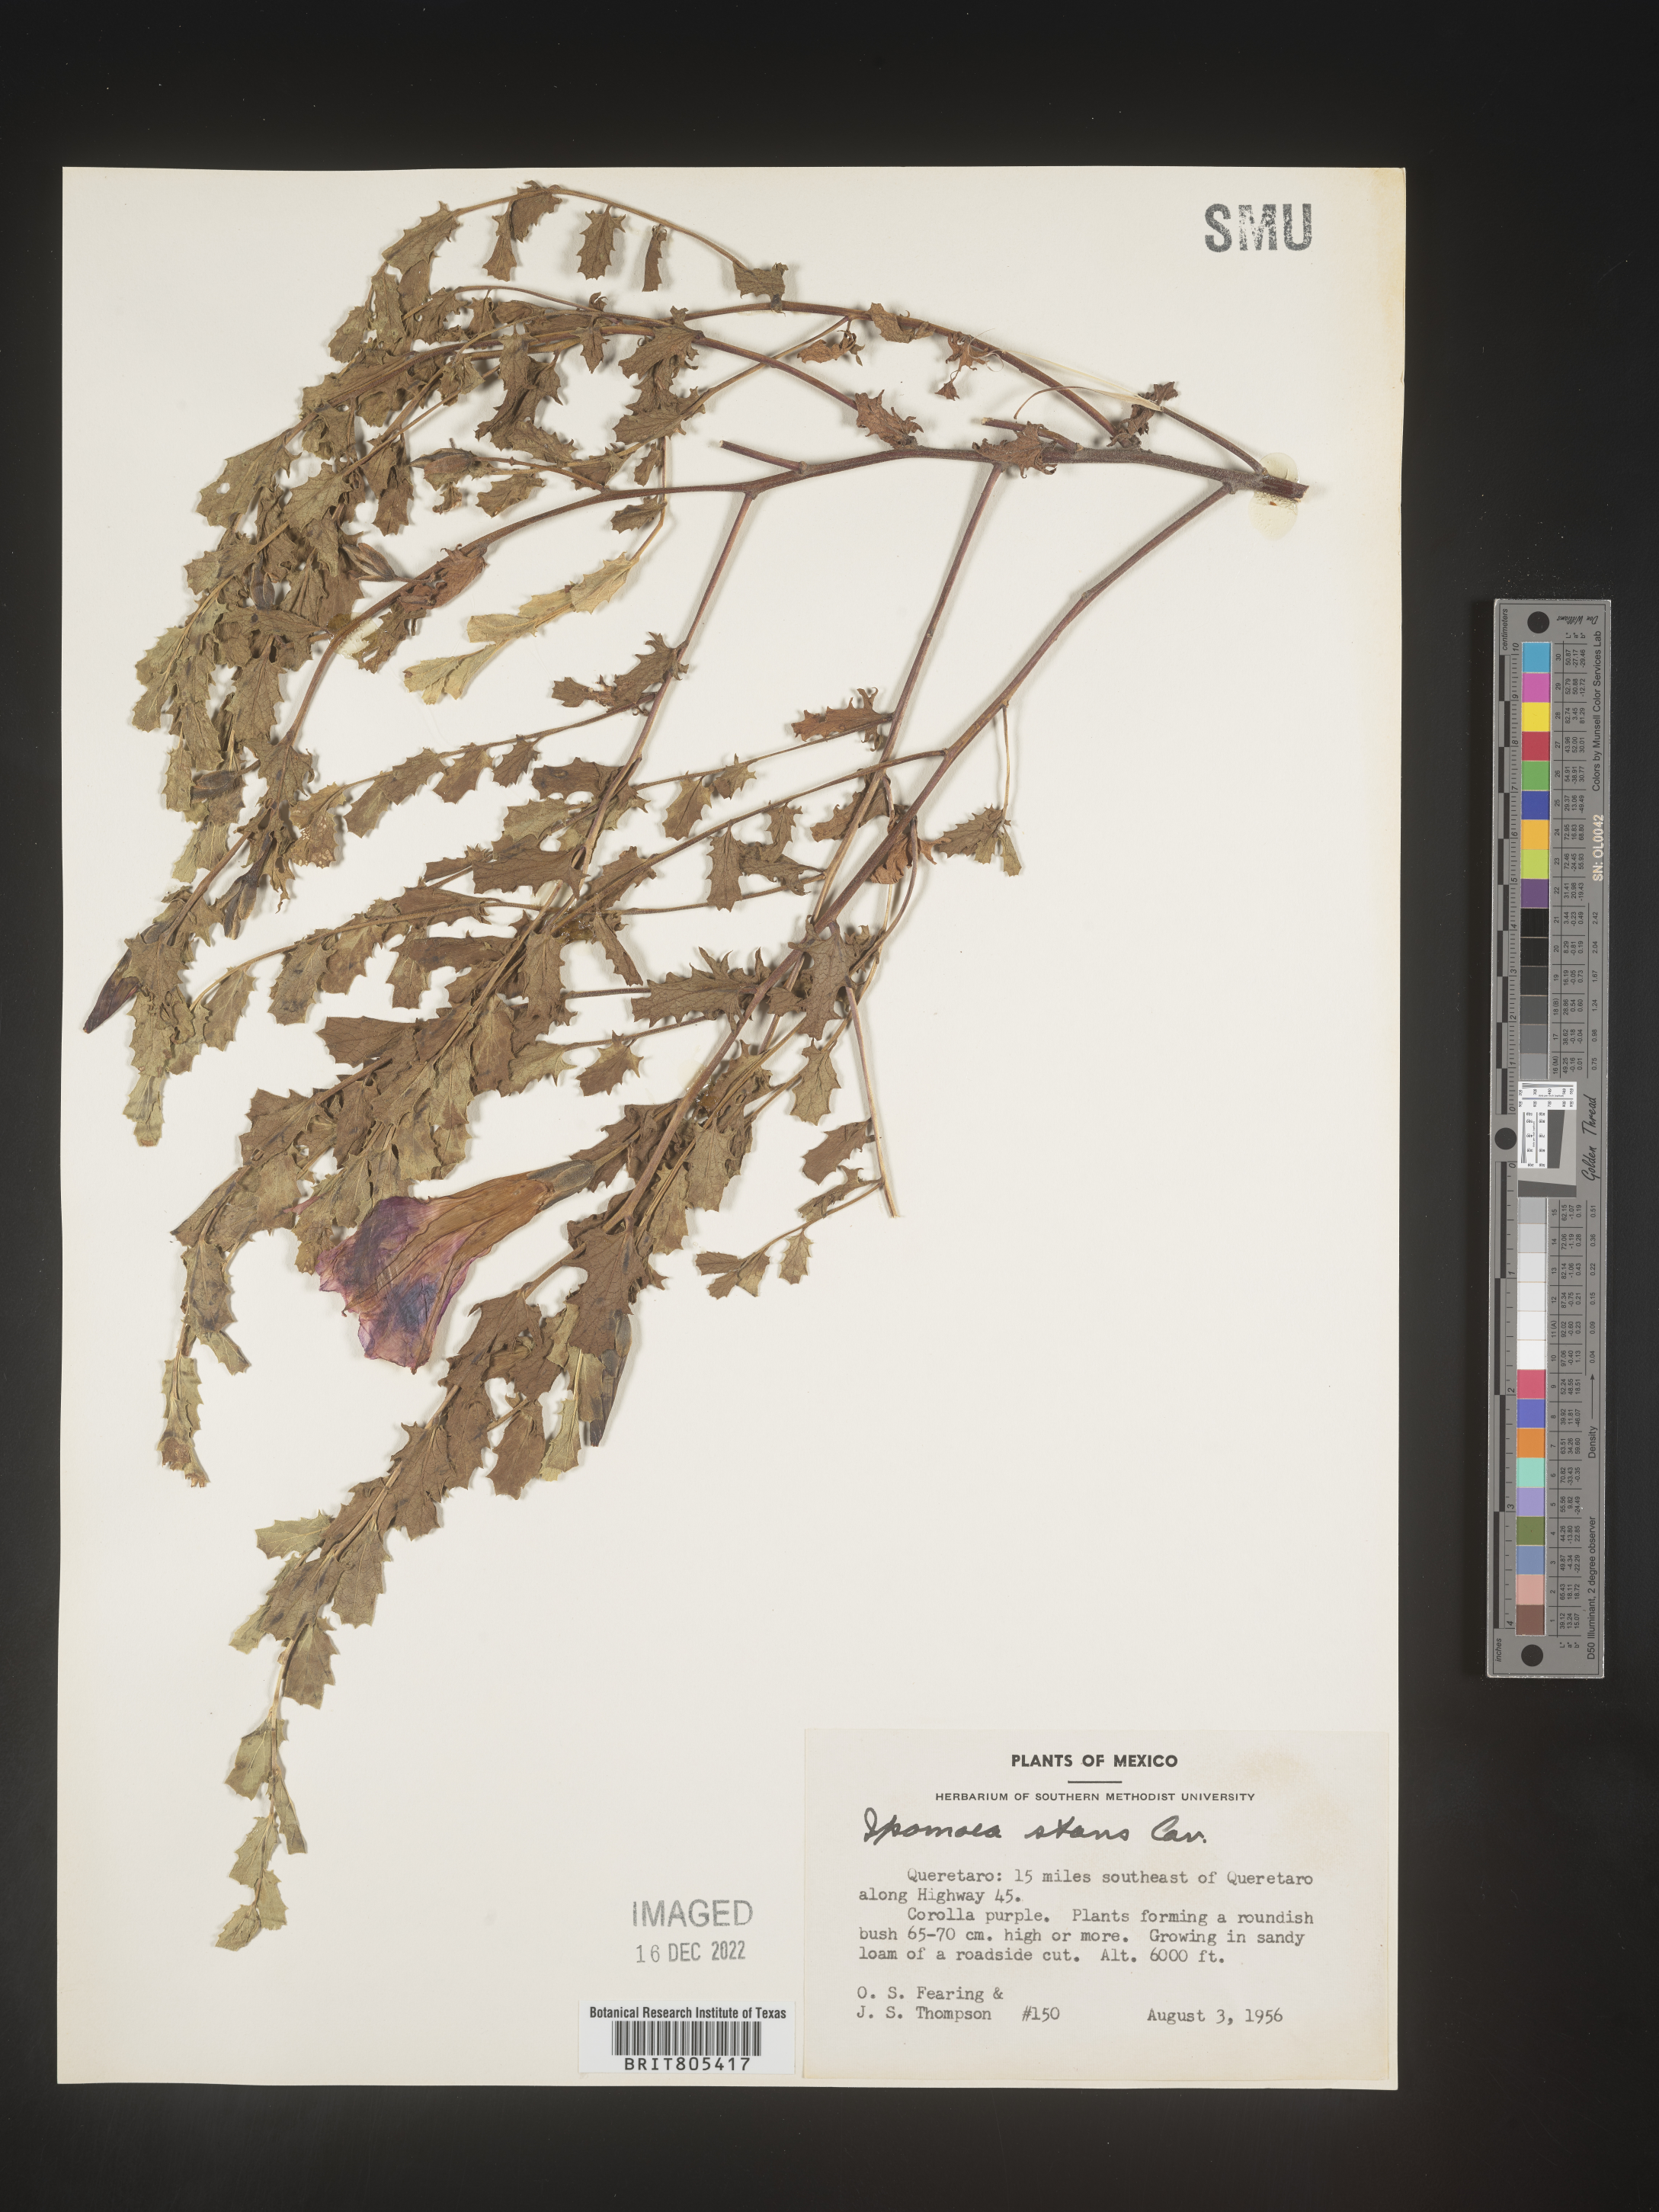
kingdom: Plantae
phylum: Tracheophyta
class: Magnoliopsida
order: Solanales
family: Convolvulaceae
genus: Ipomoea
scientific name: Ipomoea
